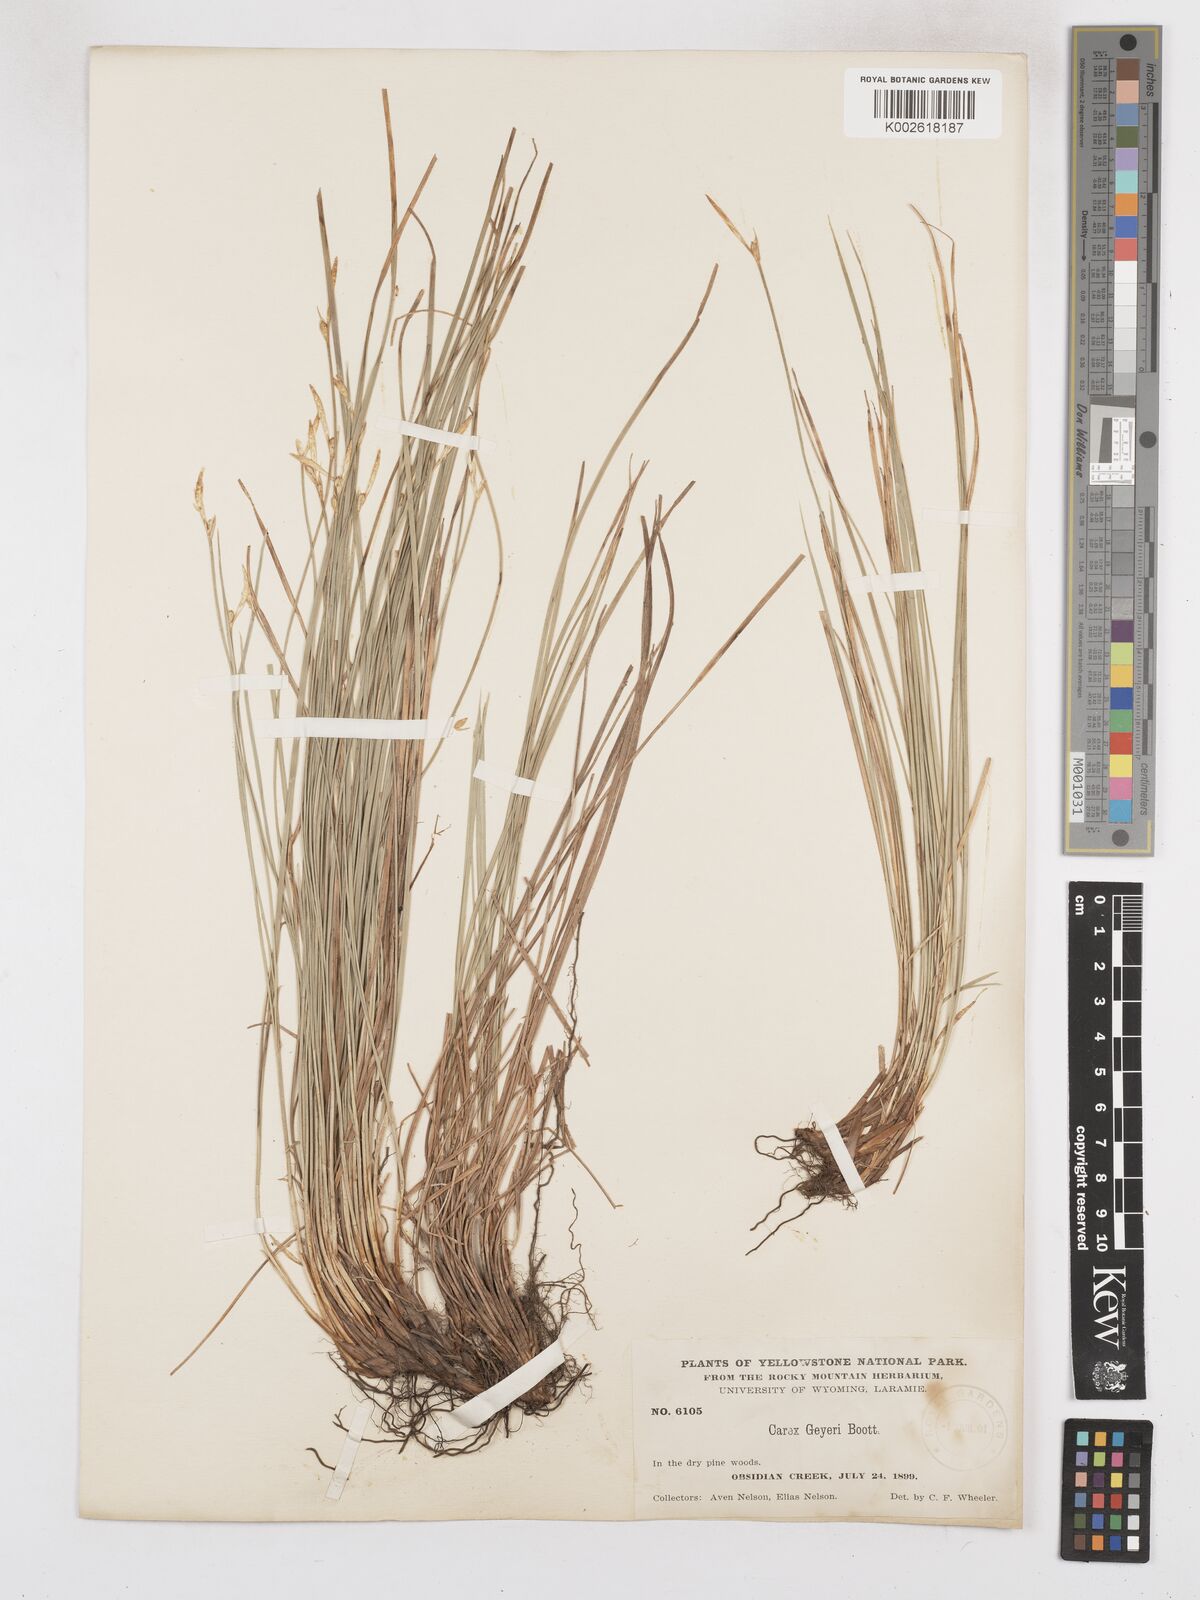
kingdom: Plantae
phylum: Tracheophyta
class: Liliopsida
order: Poales
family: Cyperaceae
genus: Carex
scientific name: Carex geyeri
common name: Elk sedge
